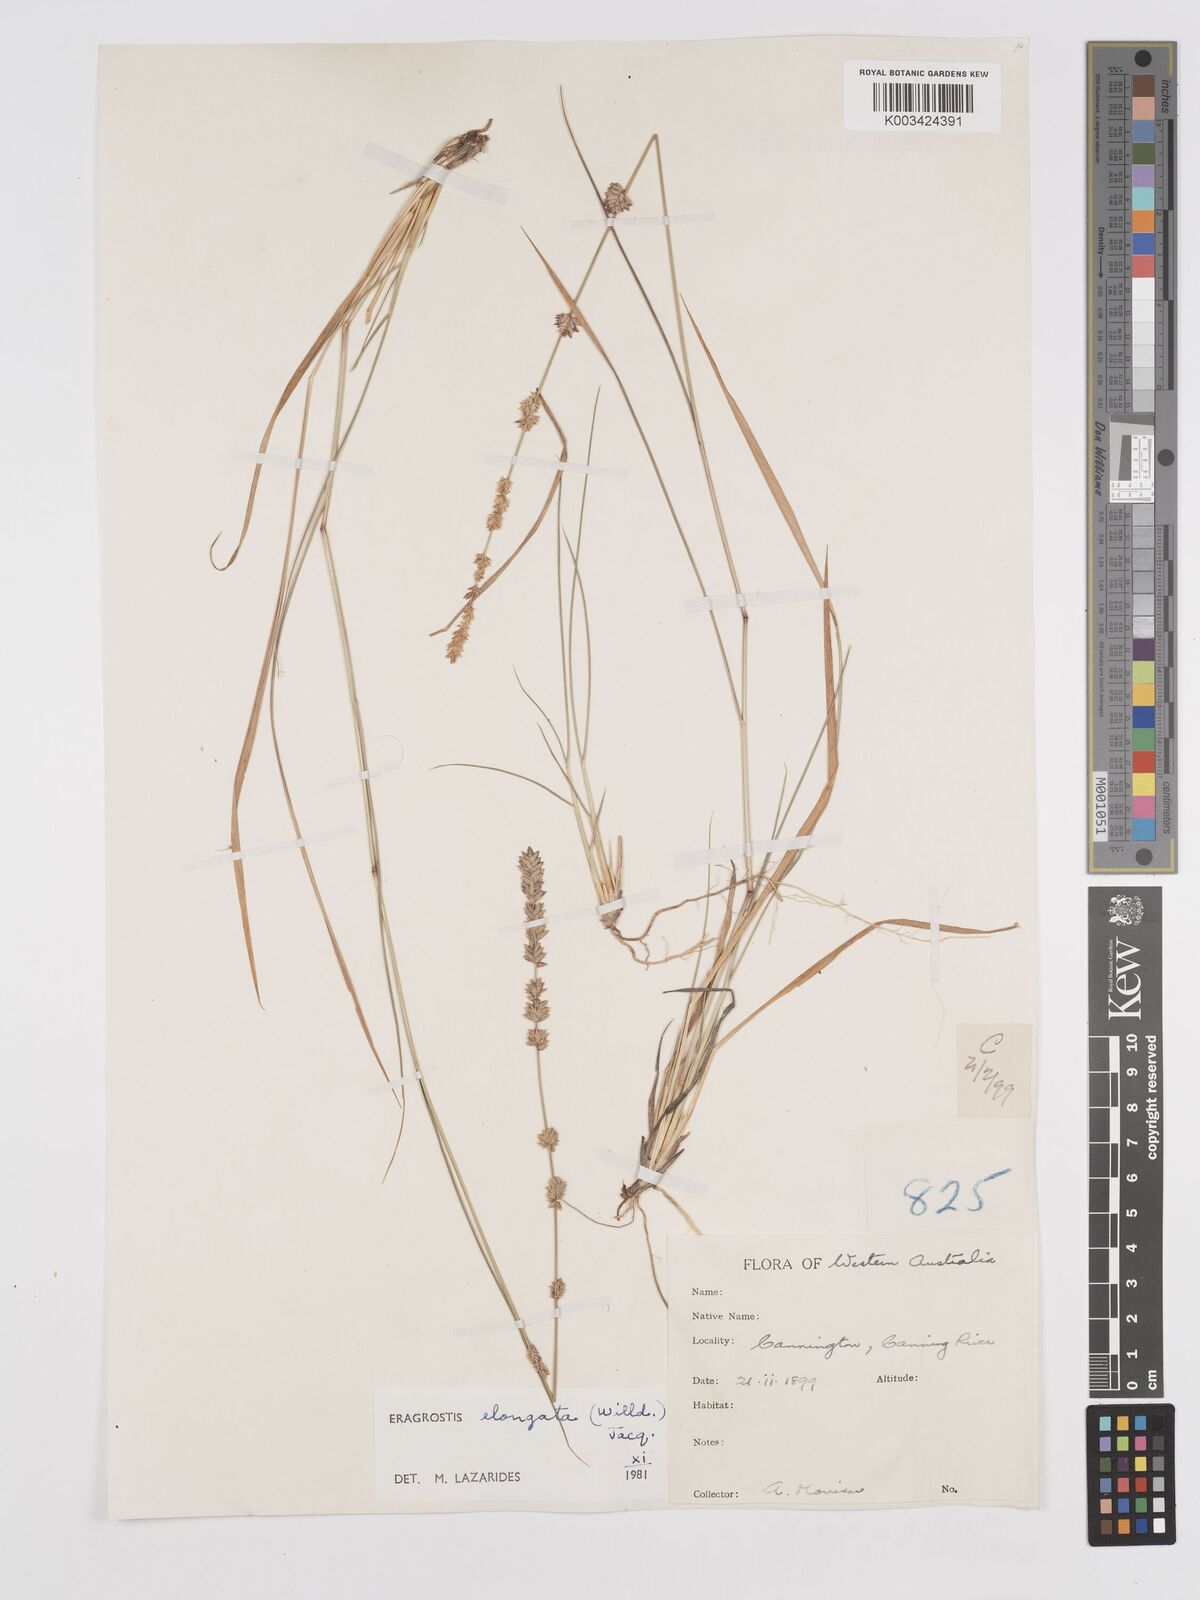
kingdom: Plantae
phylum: Tracheophyta
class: Liliopsida
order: Poales
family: Poaceae
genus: Eragrostis
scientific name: Eragrostis elongata
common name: Long lovegrass
